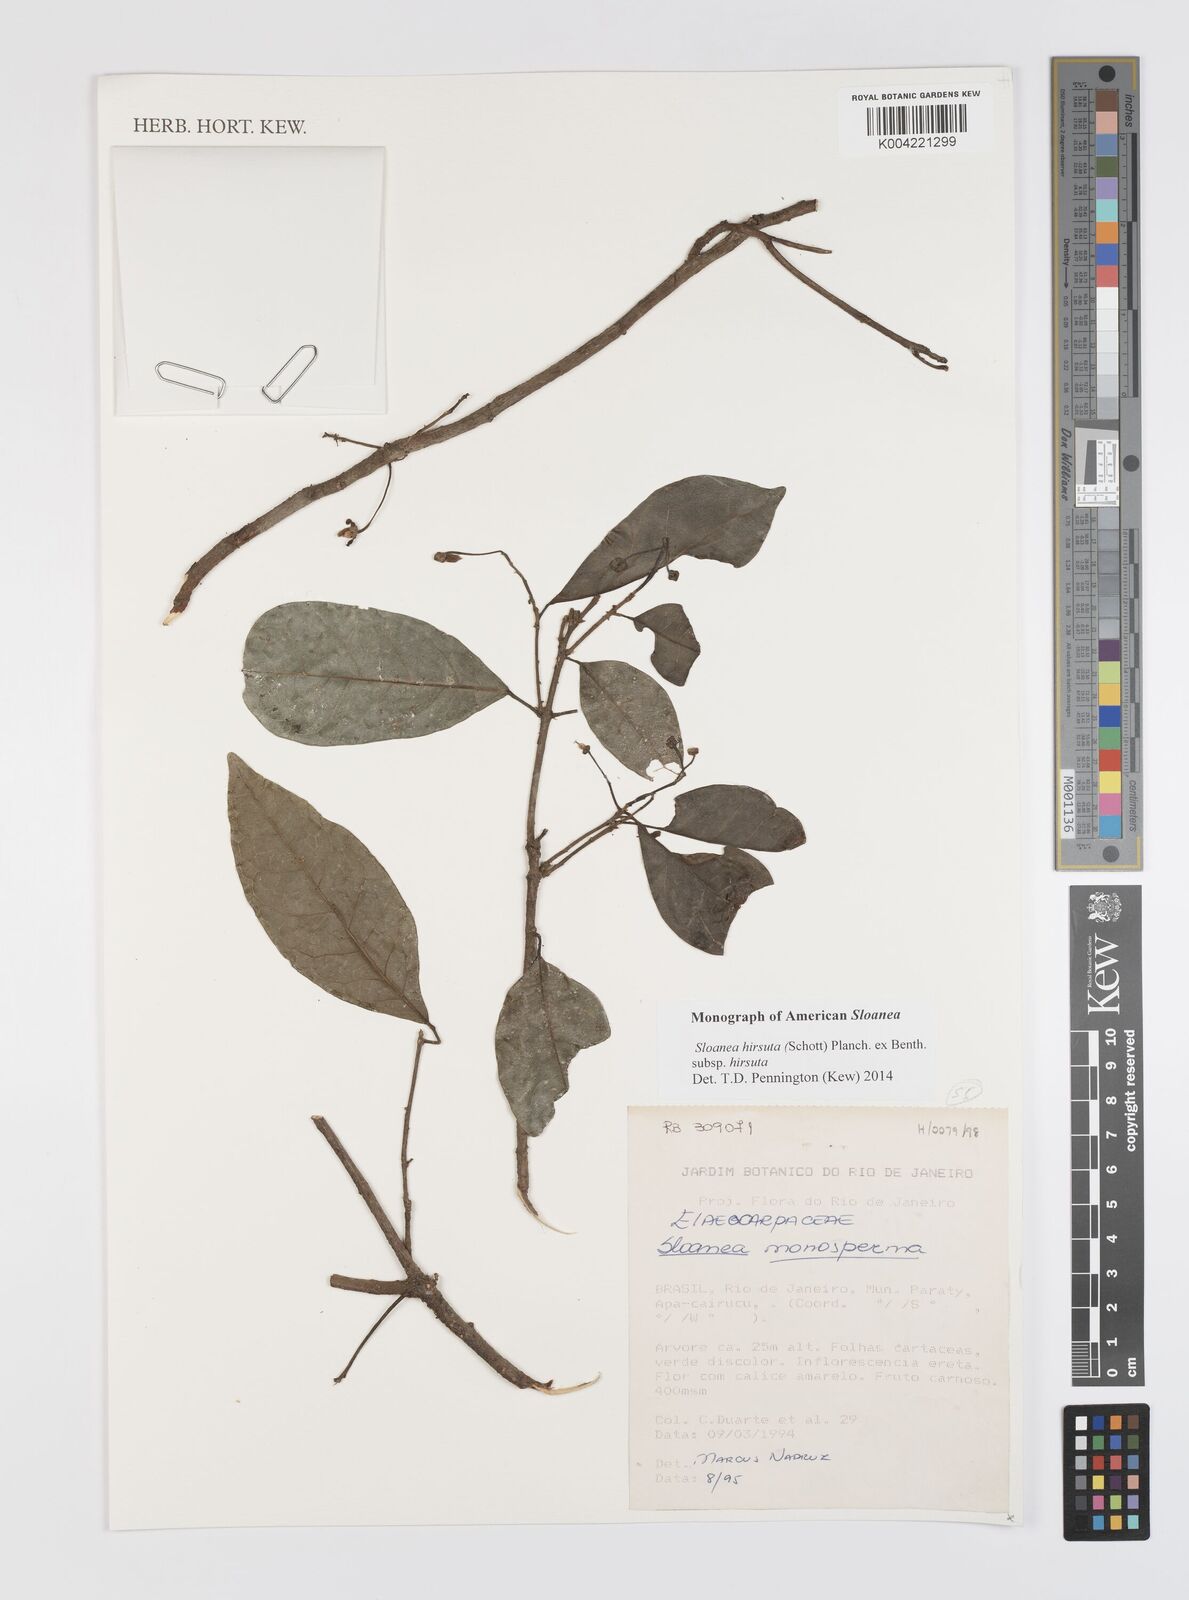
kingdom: Plantae
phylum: Tracheophyta
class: Magnoliopsida
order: Oxalidales
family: Elaeocarpaceae
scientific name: Elaeocarpaceae
